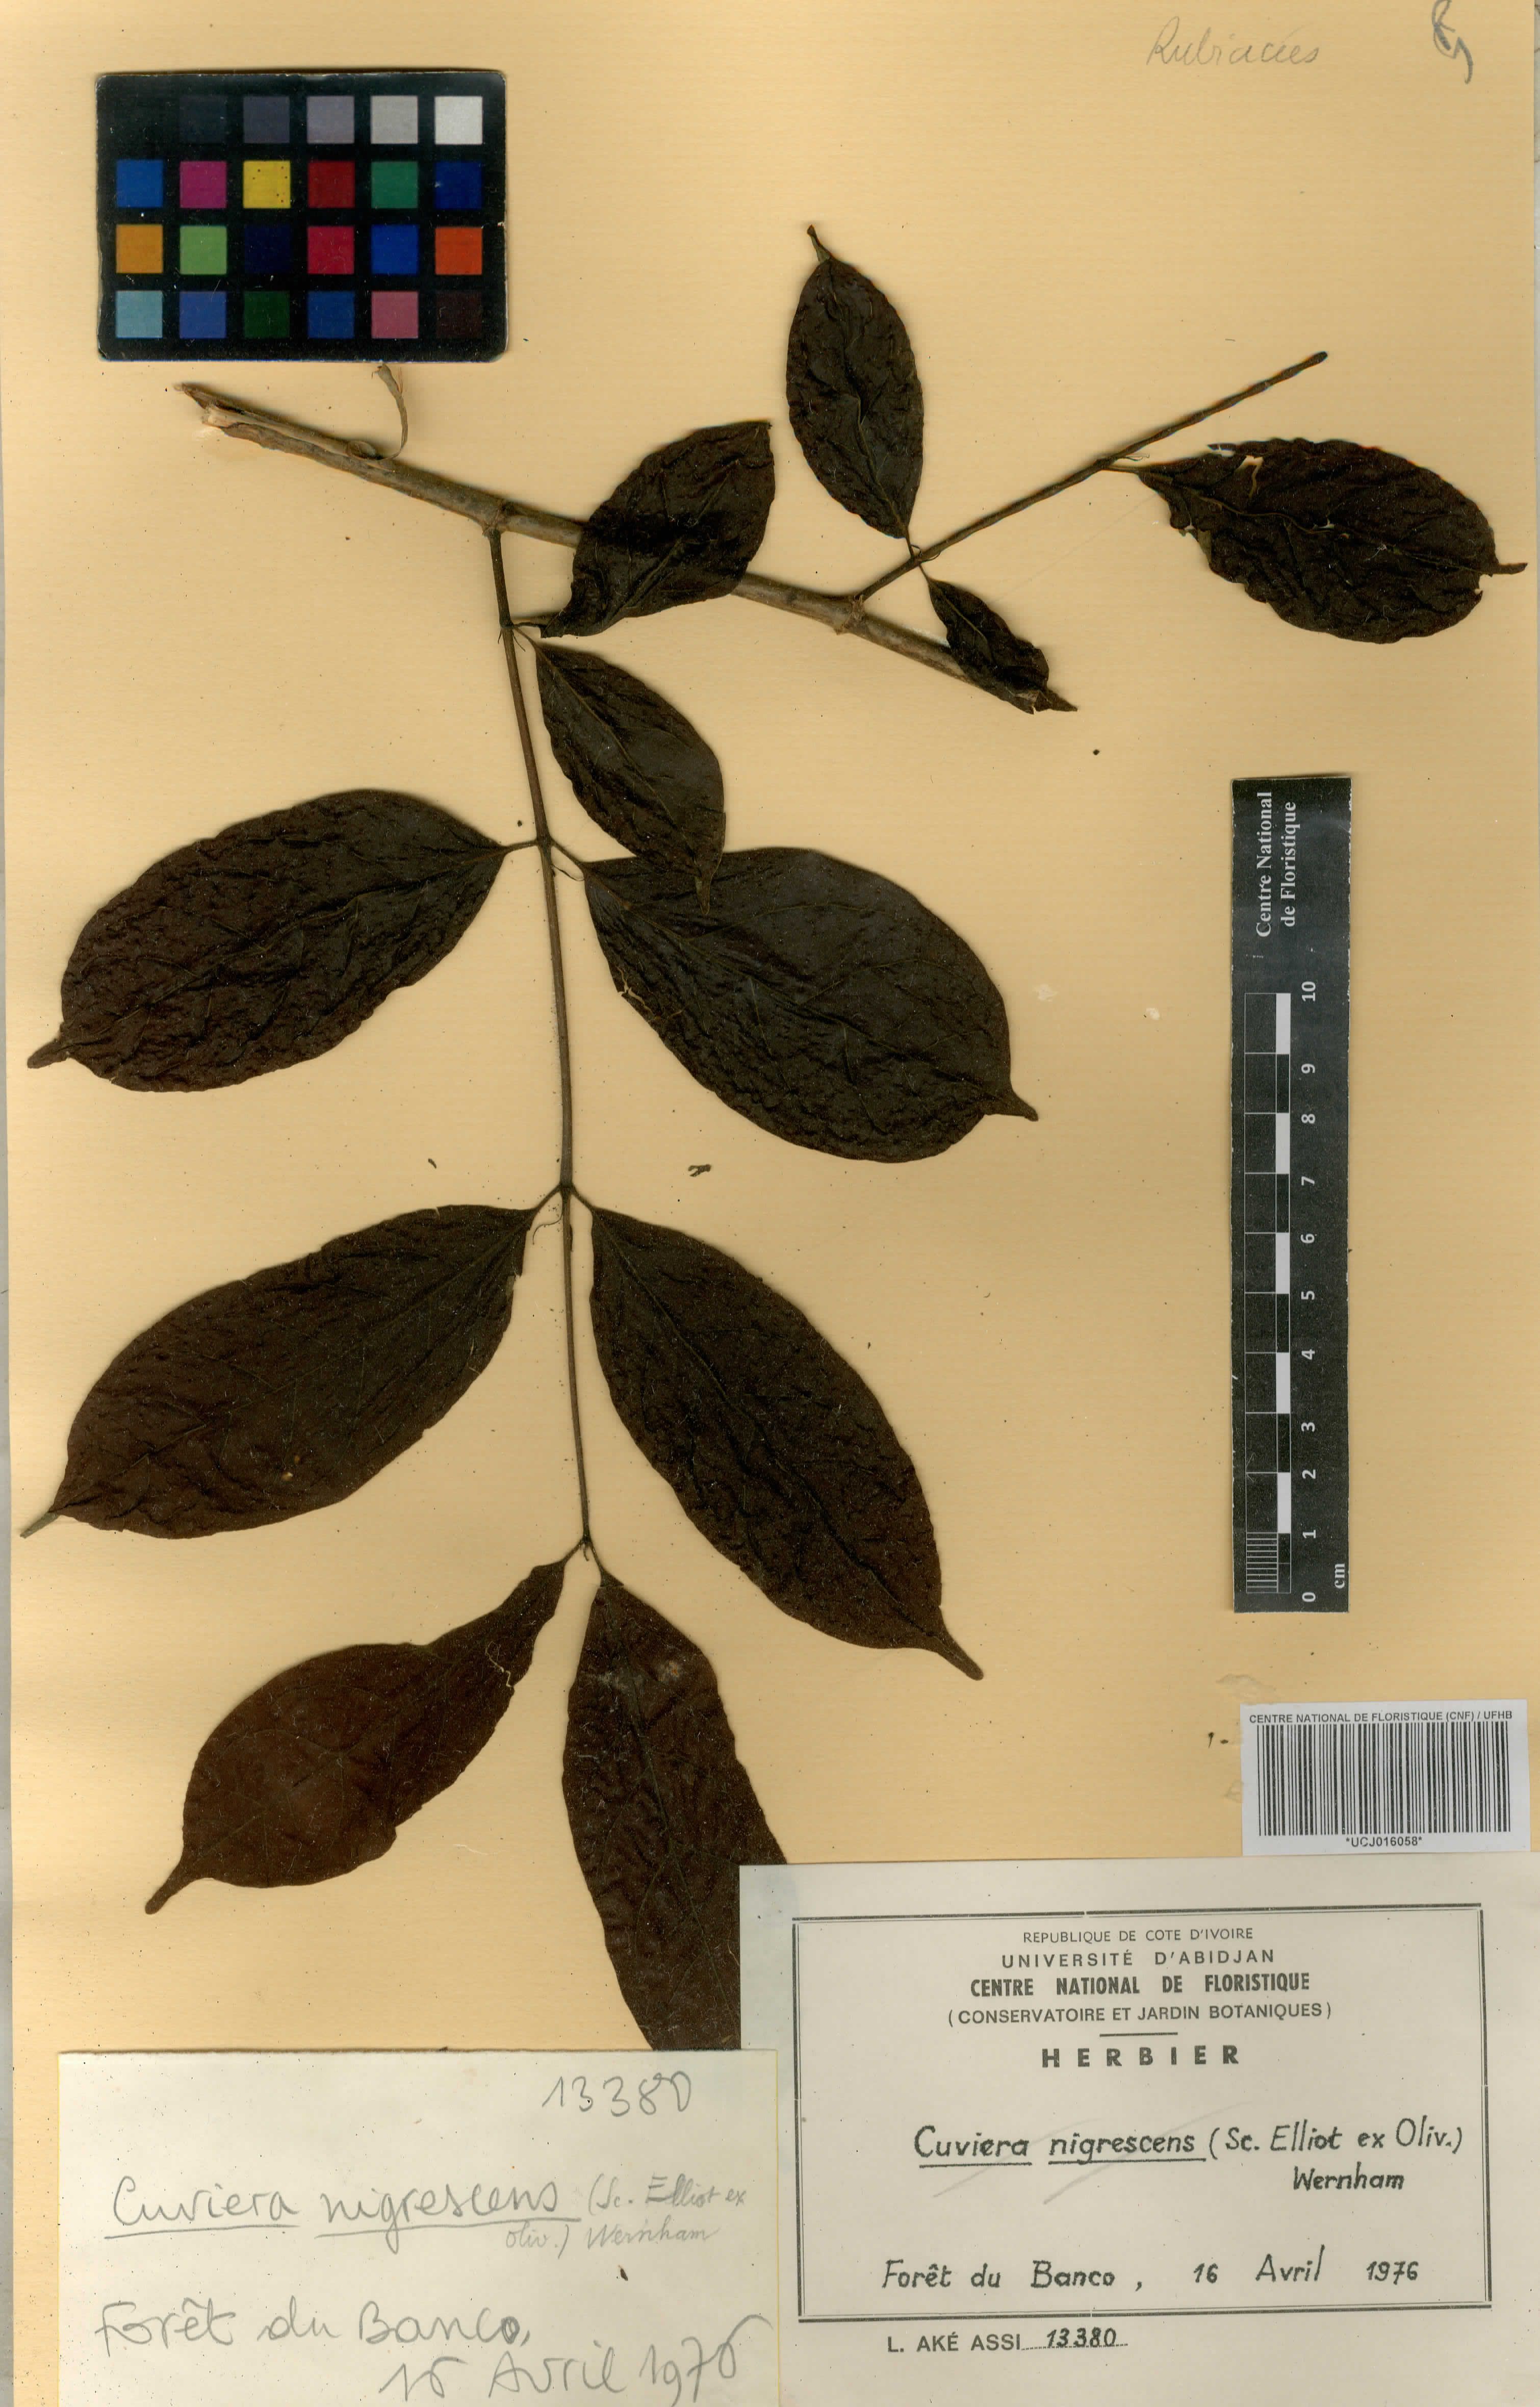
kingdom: Plantae
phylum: Tracheophyta
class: Magnoliopsida
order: Gentianales
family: Rubiaceae
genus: Vangueriopsis
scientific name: Vangueriopsis
